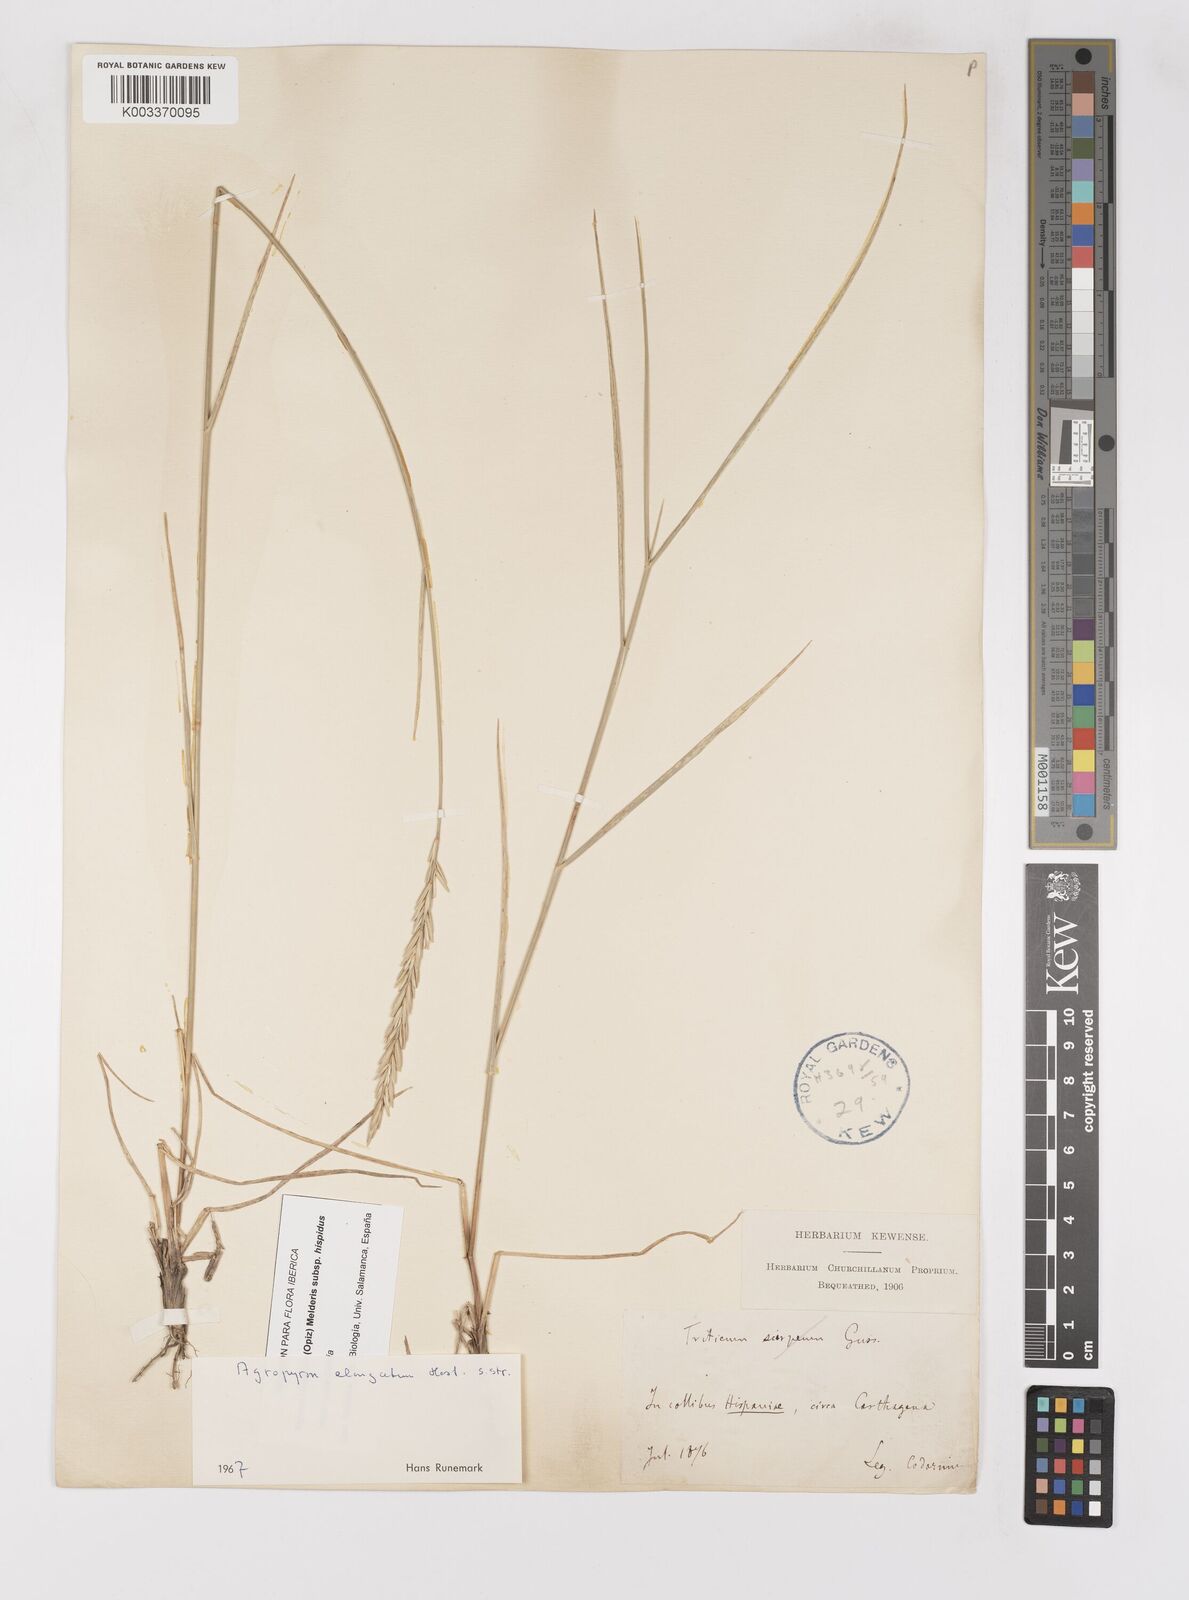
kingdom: Plantae
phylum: Tracheophyta
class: Liliopsida
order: Poales
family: Poaceae
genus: Thinopyrum
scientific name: Thinopyrum elongatum
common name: Tall wheatgrass
